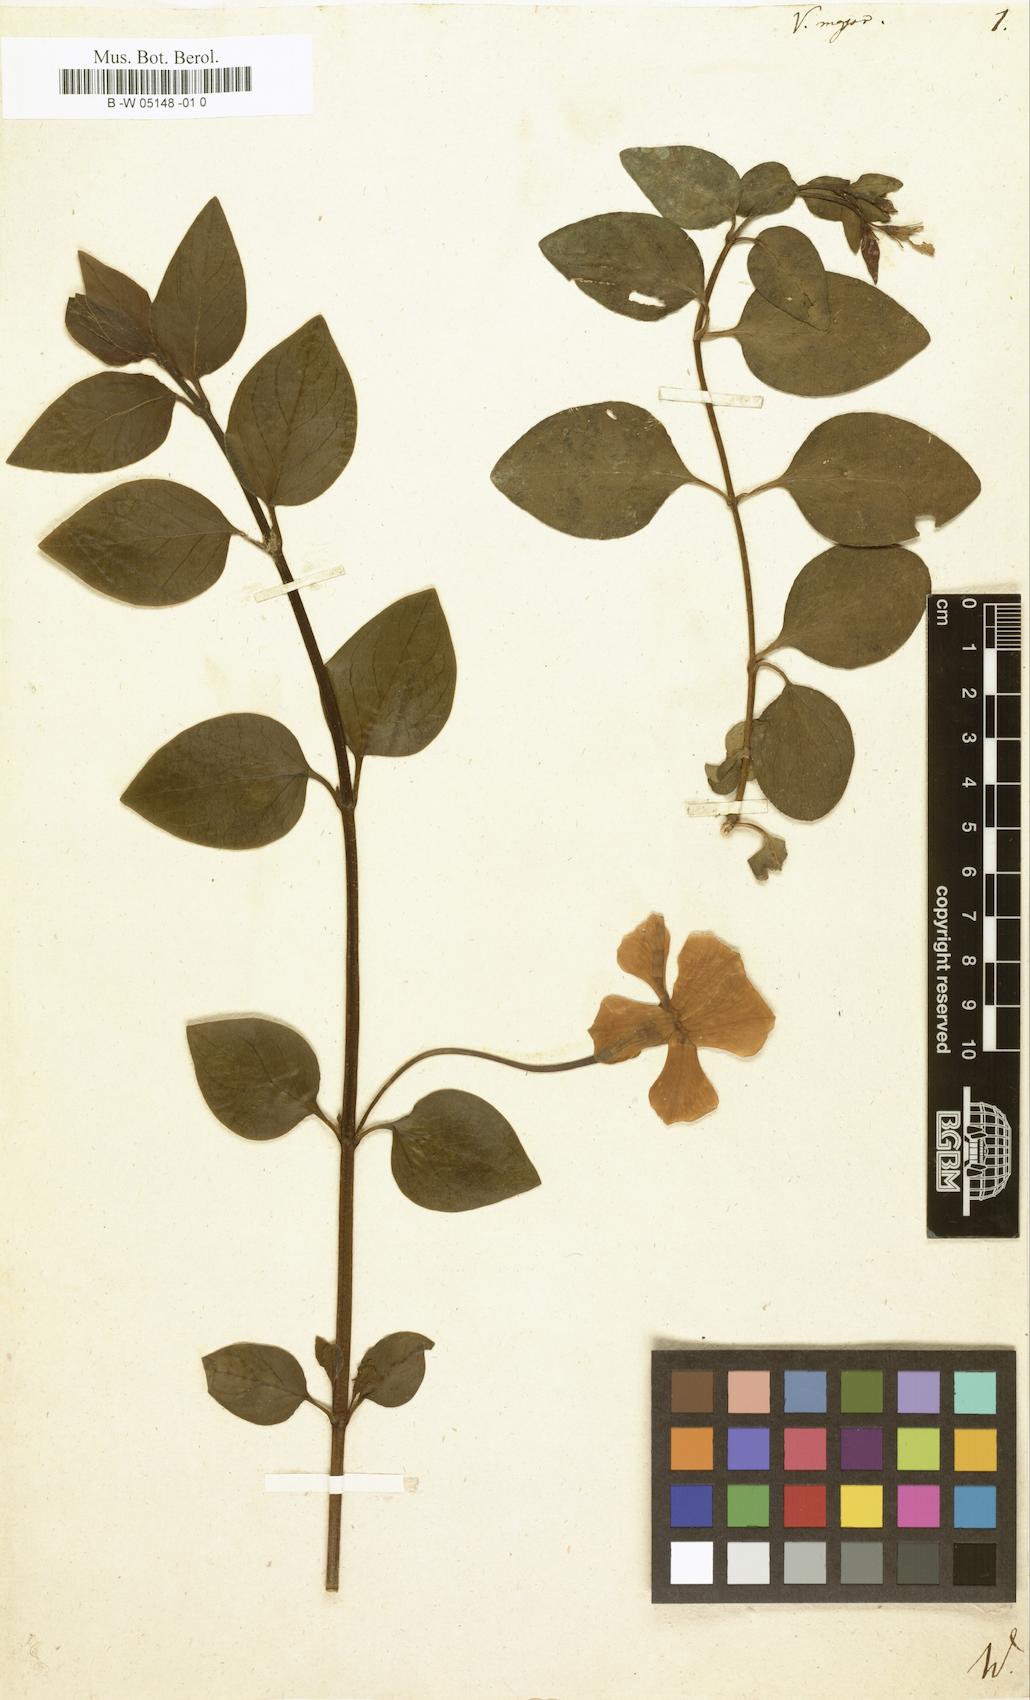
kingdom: Plantae
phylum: Tracheophyta
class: Magnoliopsida
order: Gentianales
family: Apocynaceae
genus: Vinca
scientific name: Vinca major
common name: Greater periwinkle
